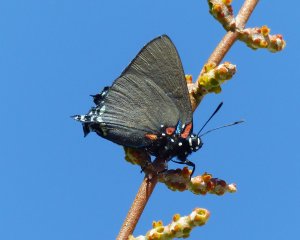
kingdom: Animalia
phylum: Arthropoda
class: Insecta
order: Lepidoptera
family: Lycaenidae
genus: Atlides
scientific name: Atlides halesus
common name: Great Purple Hairstreak
